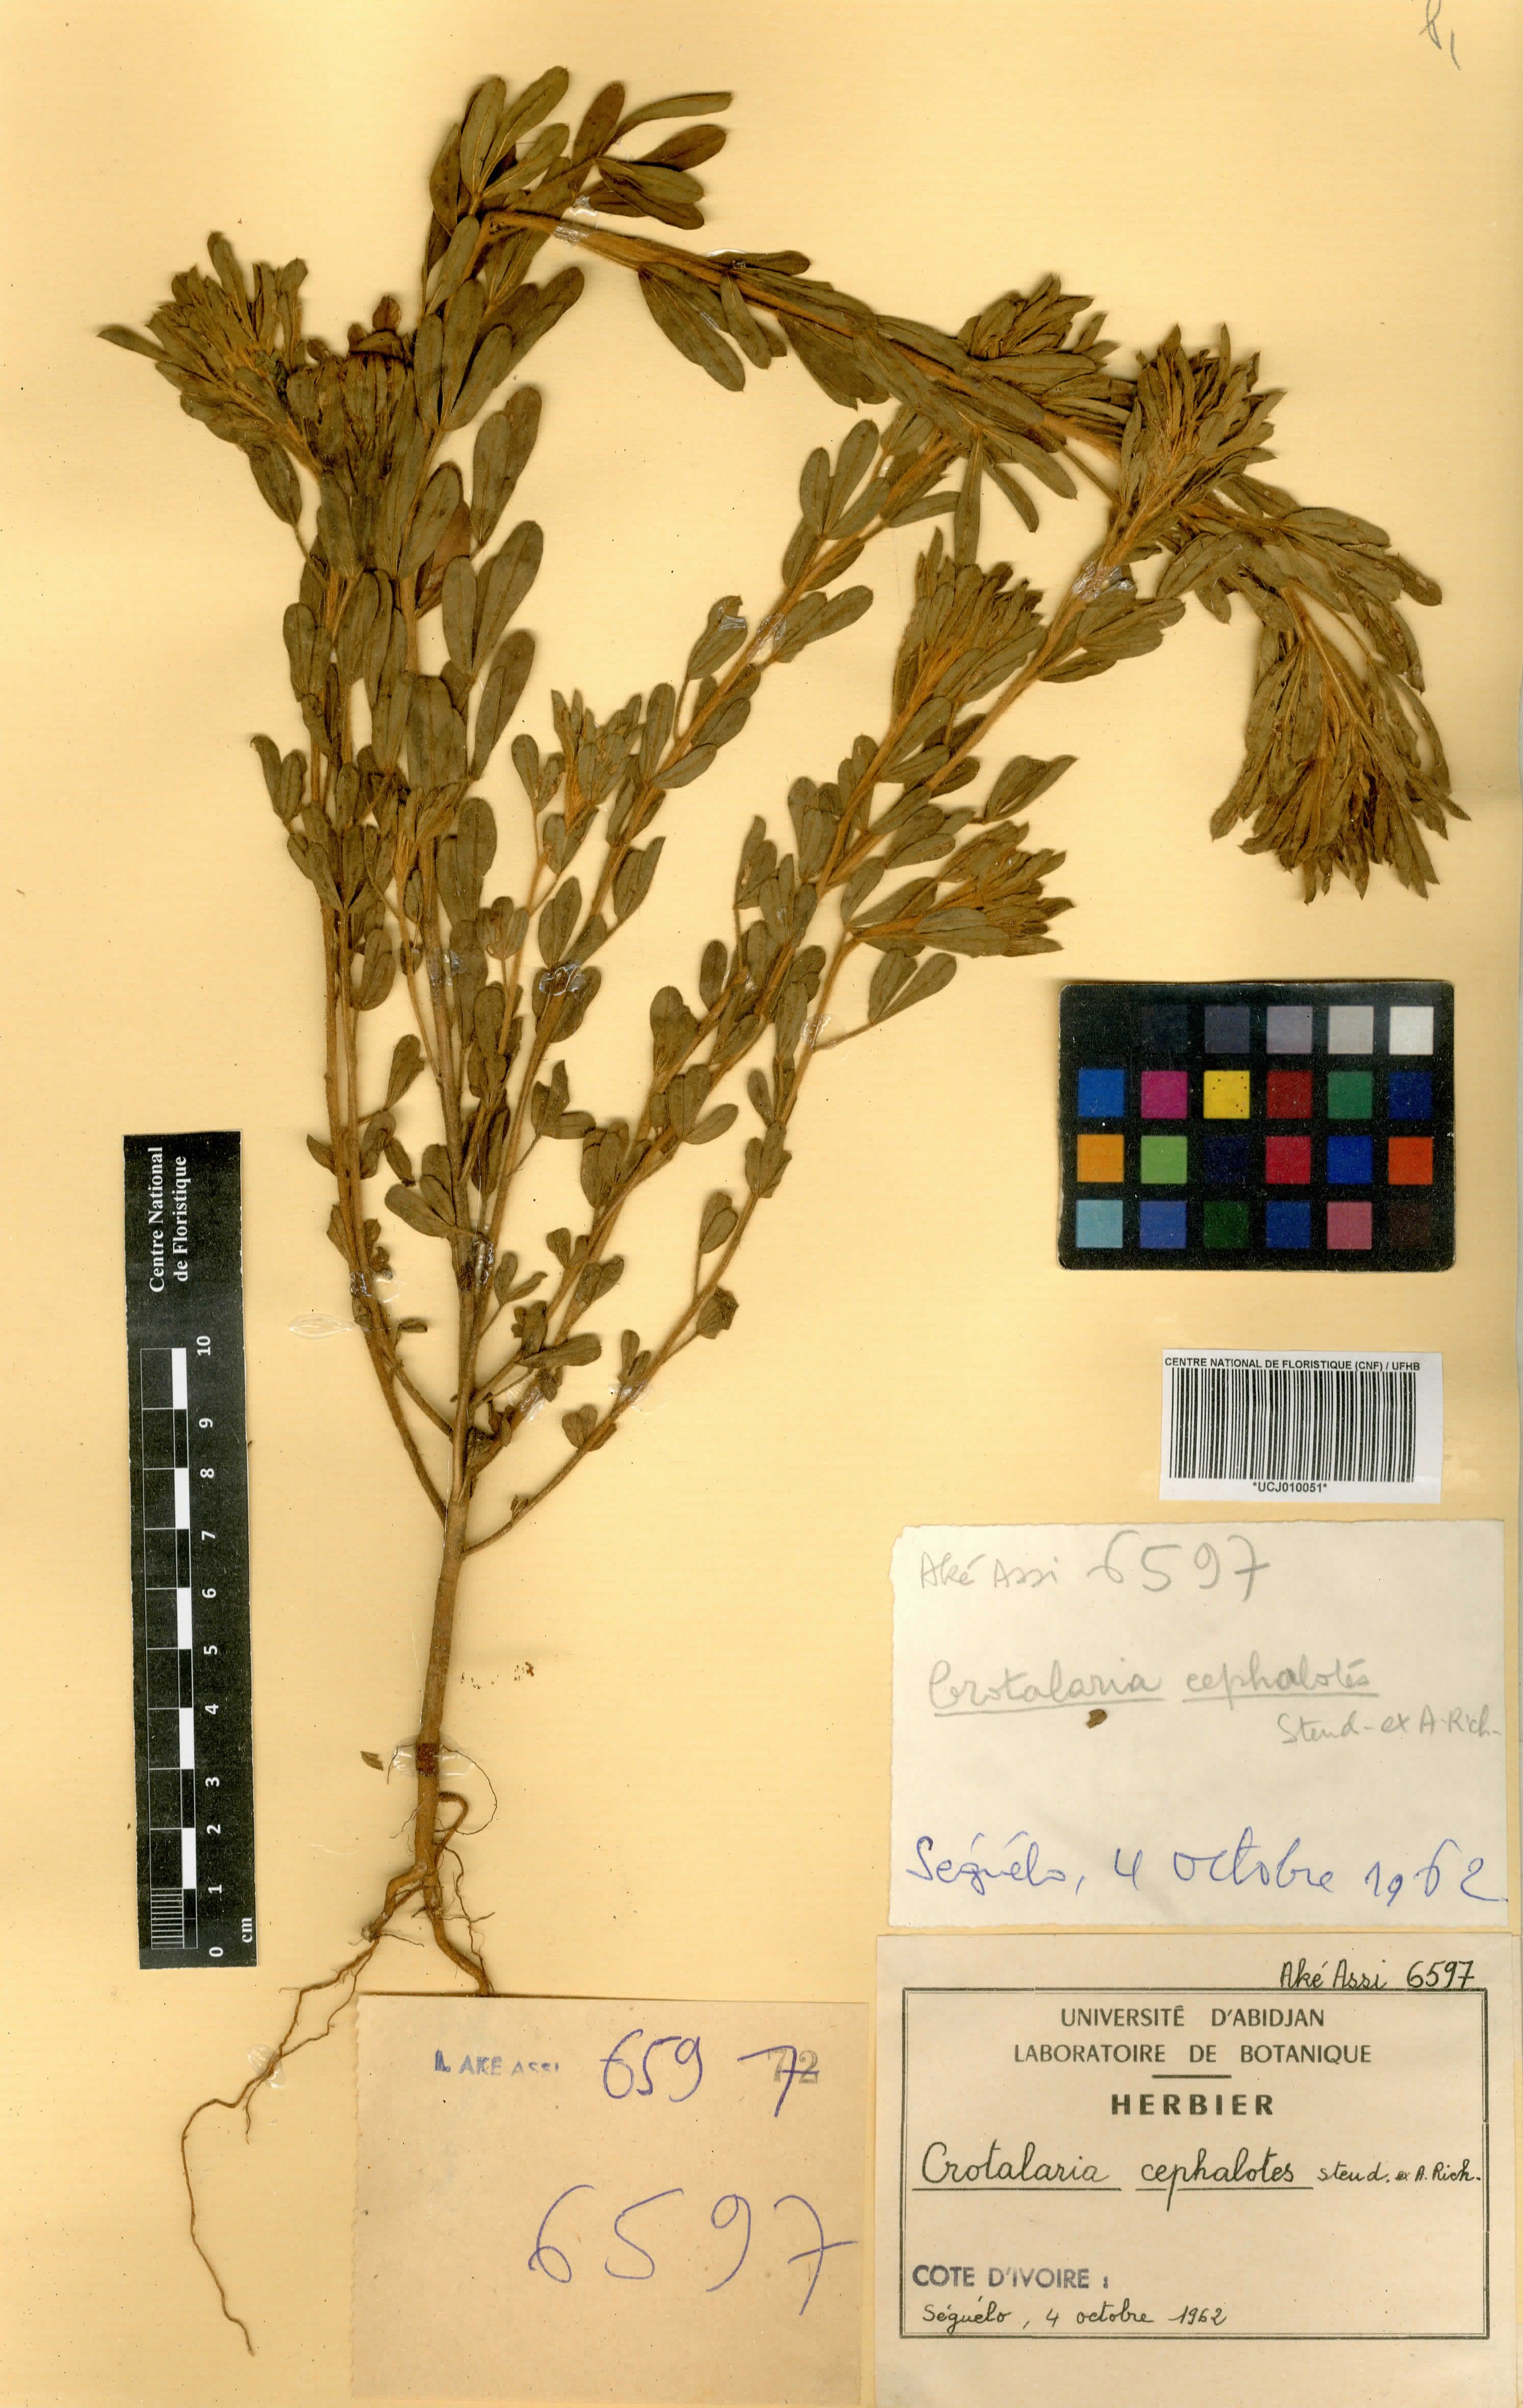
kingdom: Plantae
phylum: Tracheophyta
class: Magnoliopsida
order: Fabales
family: Fabaceae
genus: Crotalaria
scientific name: Crotalaria cephalotes
